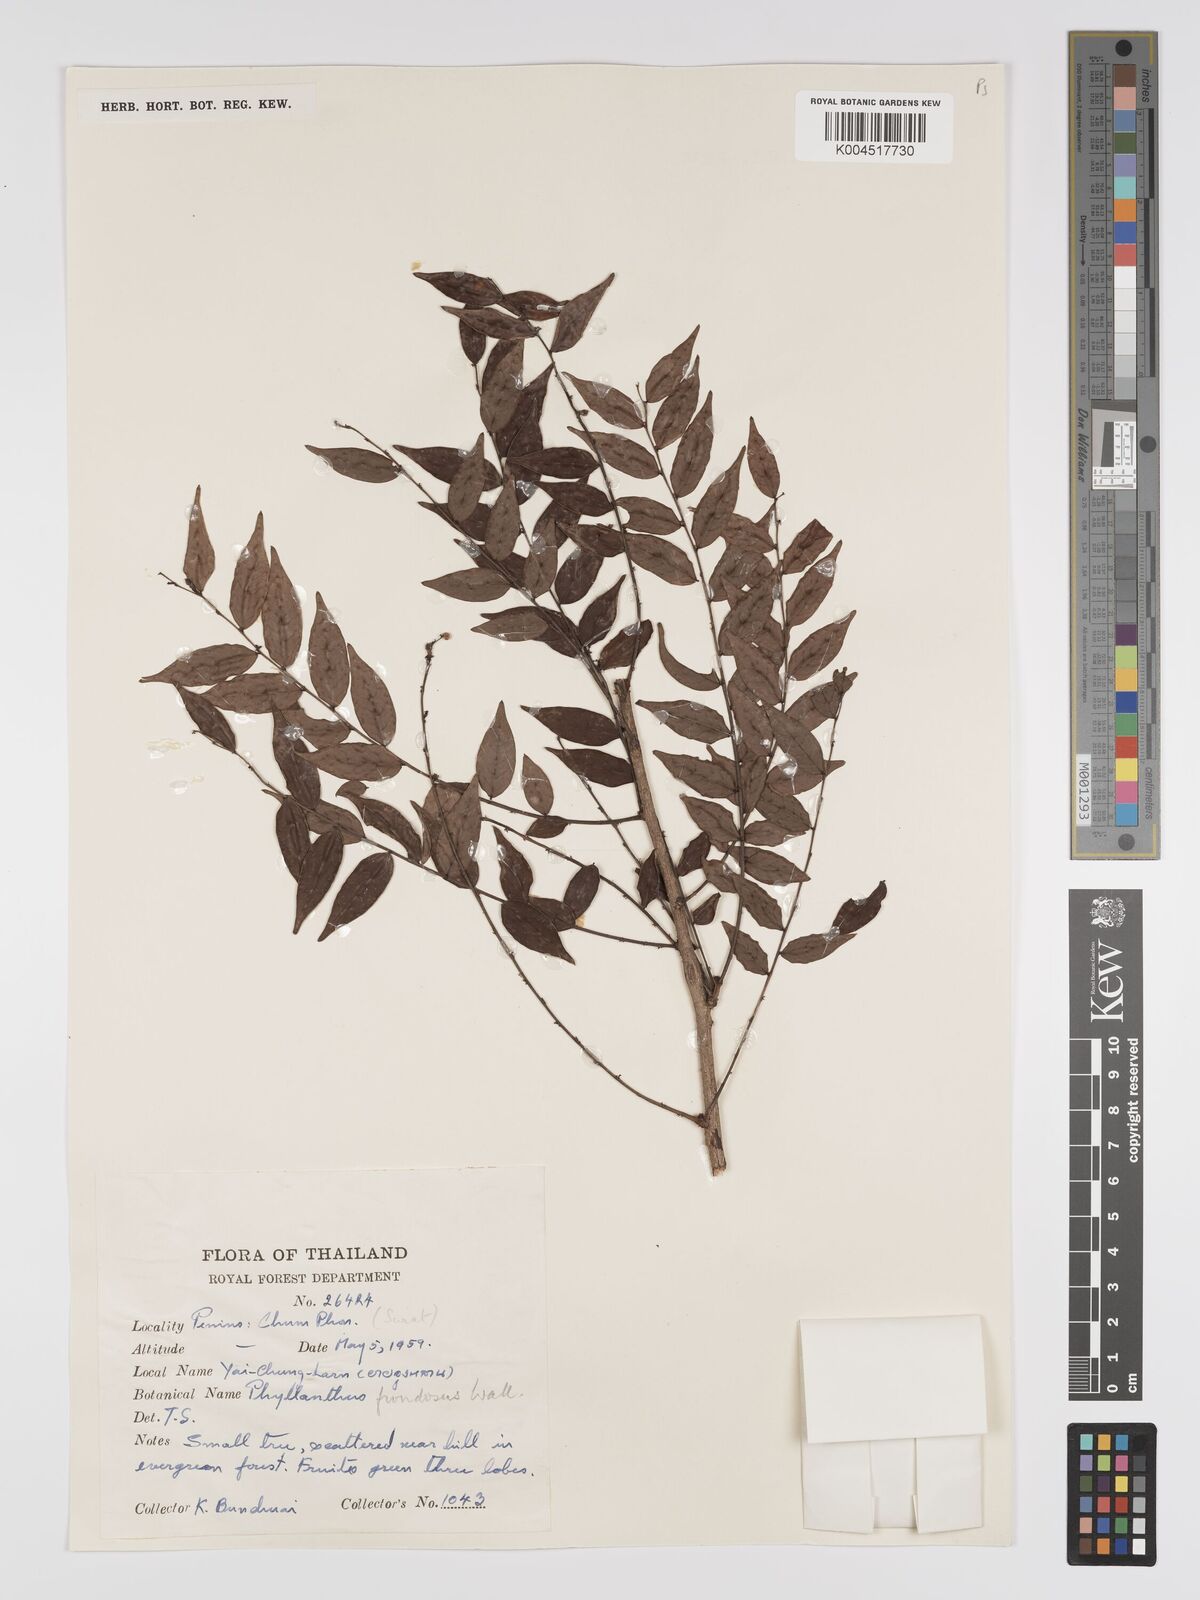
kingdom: Plantae
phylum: Tracheophyta
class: Magnoliopsida
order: Malpighiales
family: Phyllanthaceae
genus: Phyllanthus
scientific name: Phyllanthus
